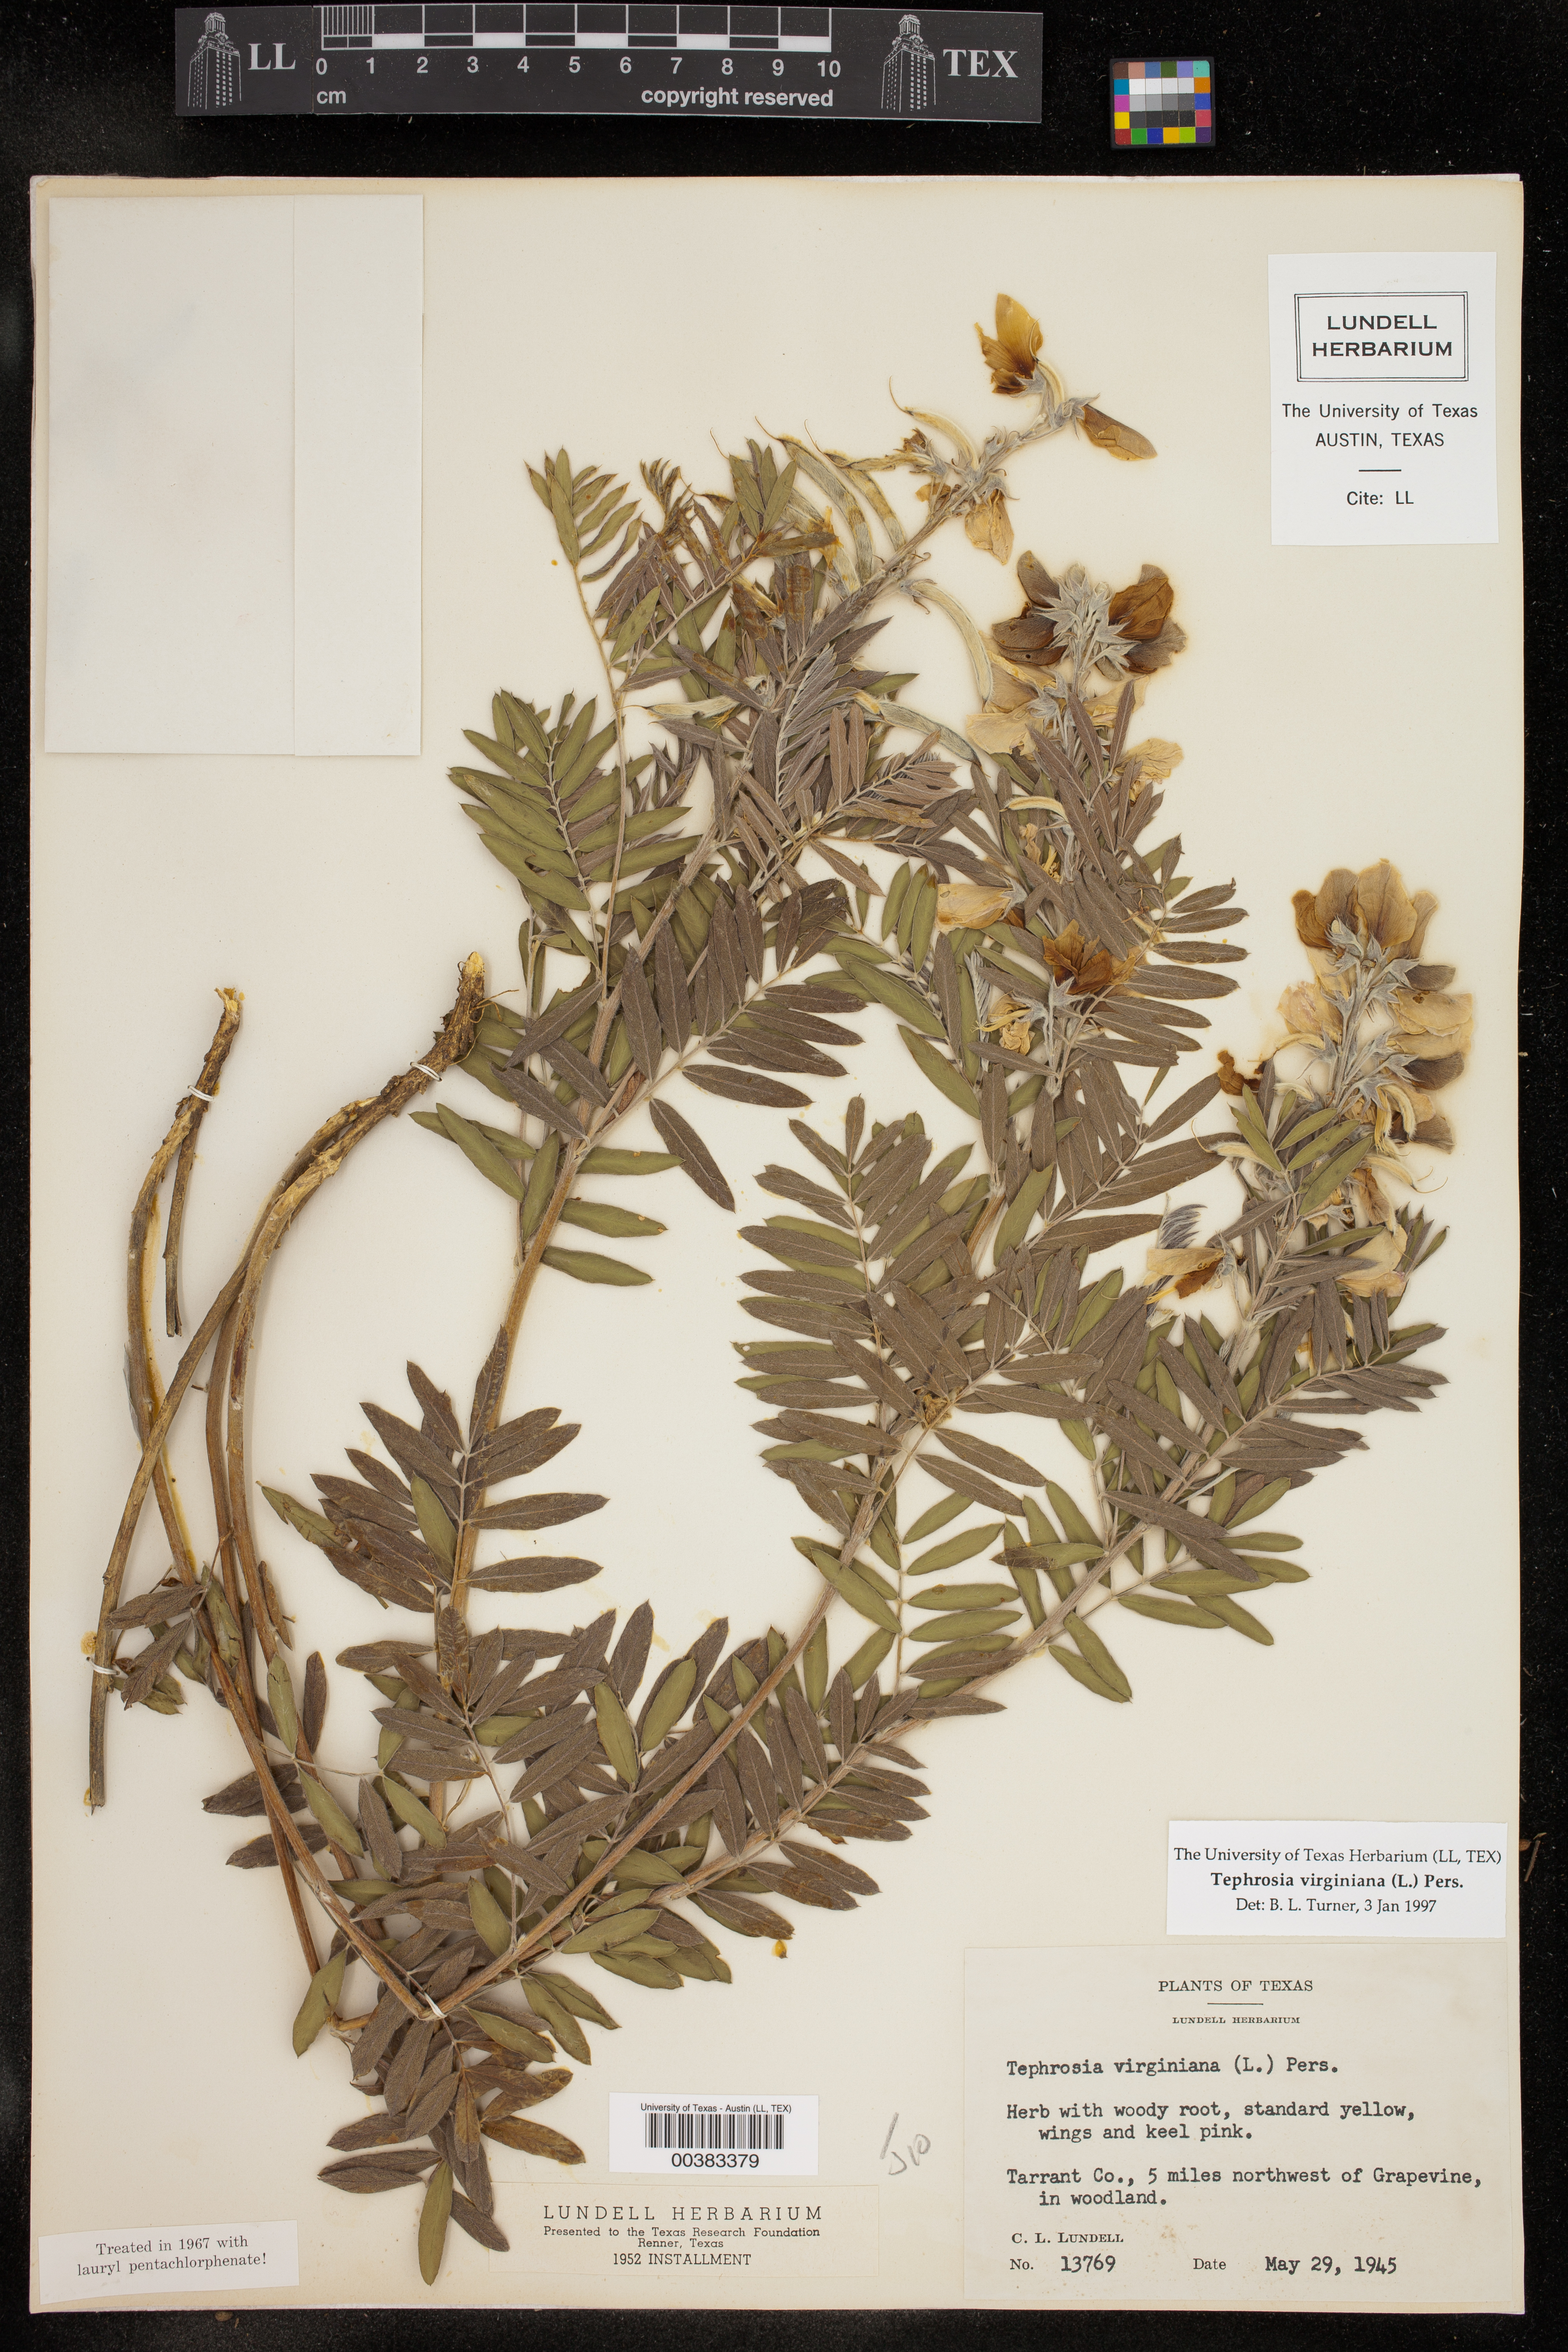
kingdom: Plantae
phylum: Tracheophyta
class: Magnoliopsida
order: Fabales
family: Fabaceae
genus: Tephrosia
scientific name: Tephrosia virginiana
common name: Rabbit-pea
